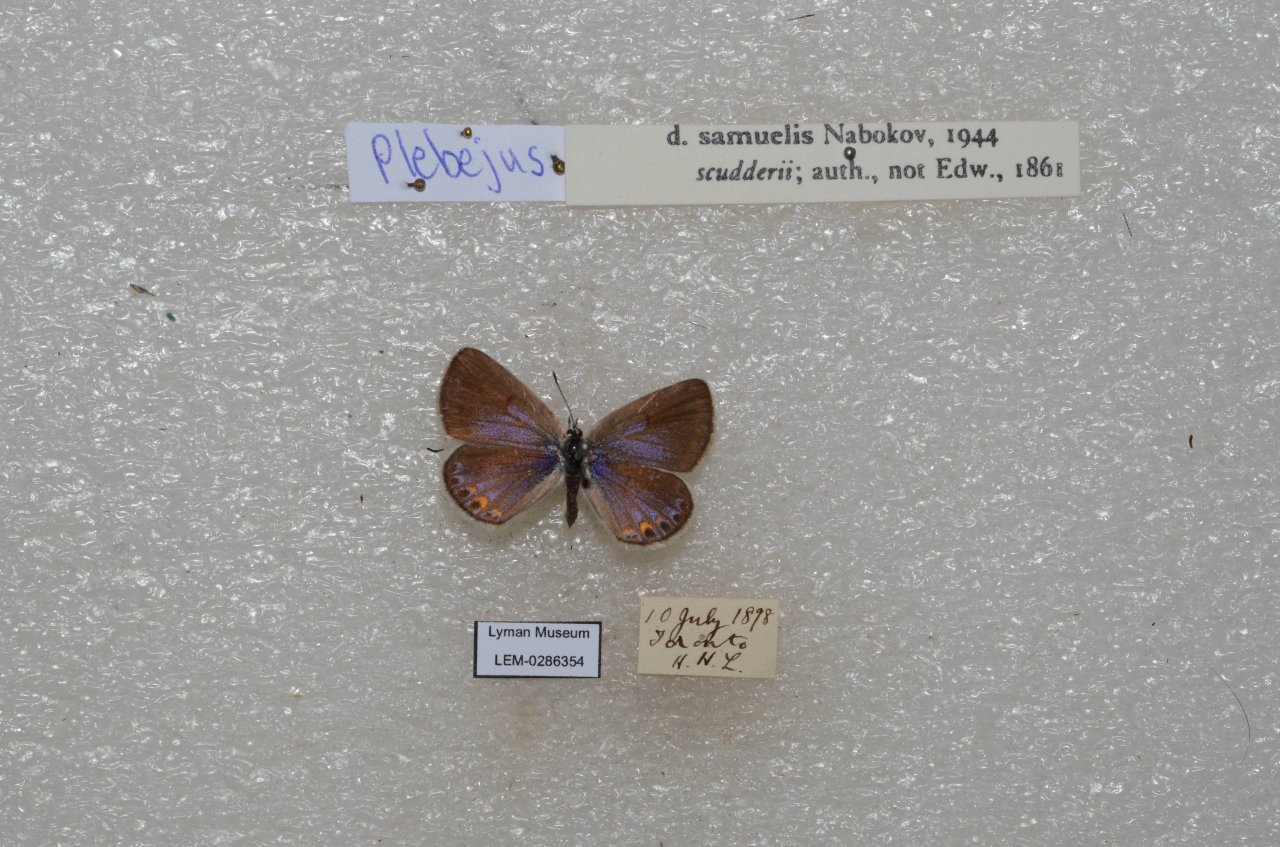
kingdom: Animalia
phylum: Arthropoda
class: Insecta
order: Lepidoptera
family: Lycaenidae
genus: Plebejus
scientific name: Plebejus samuelis
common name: Karner Blue
